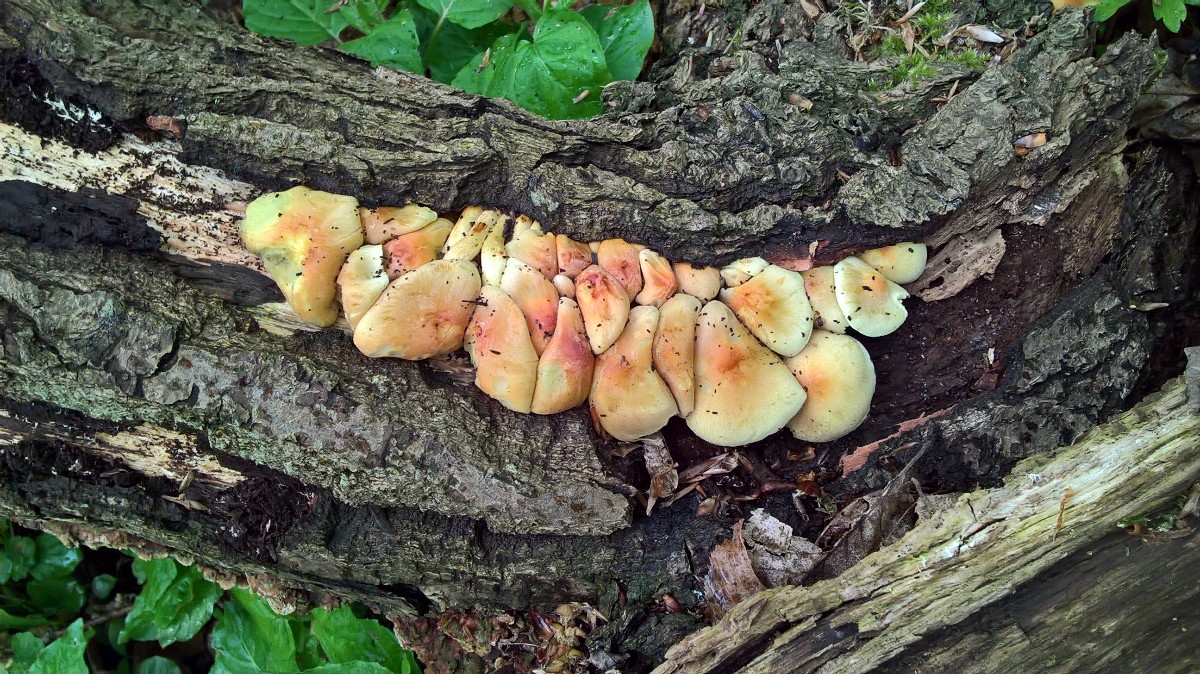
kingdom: Fungi
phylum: Basidiomycota
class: Agaricomycetes
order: Agaricales
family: Strophariaceae
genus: Hypholoma
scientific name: Hypholoma fasciculare
